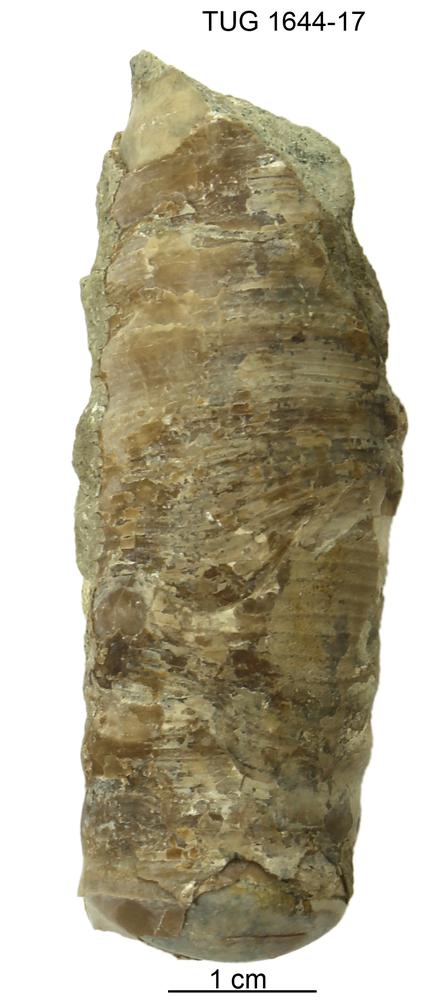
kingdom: Animalia
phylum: Mollusca
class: Cephalopoda
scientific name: Cephalopoda
